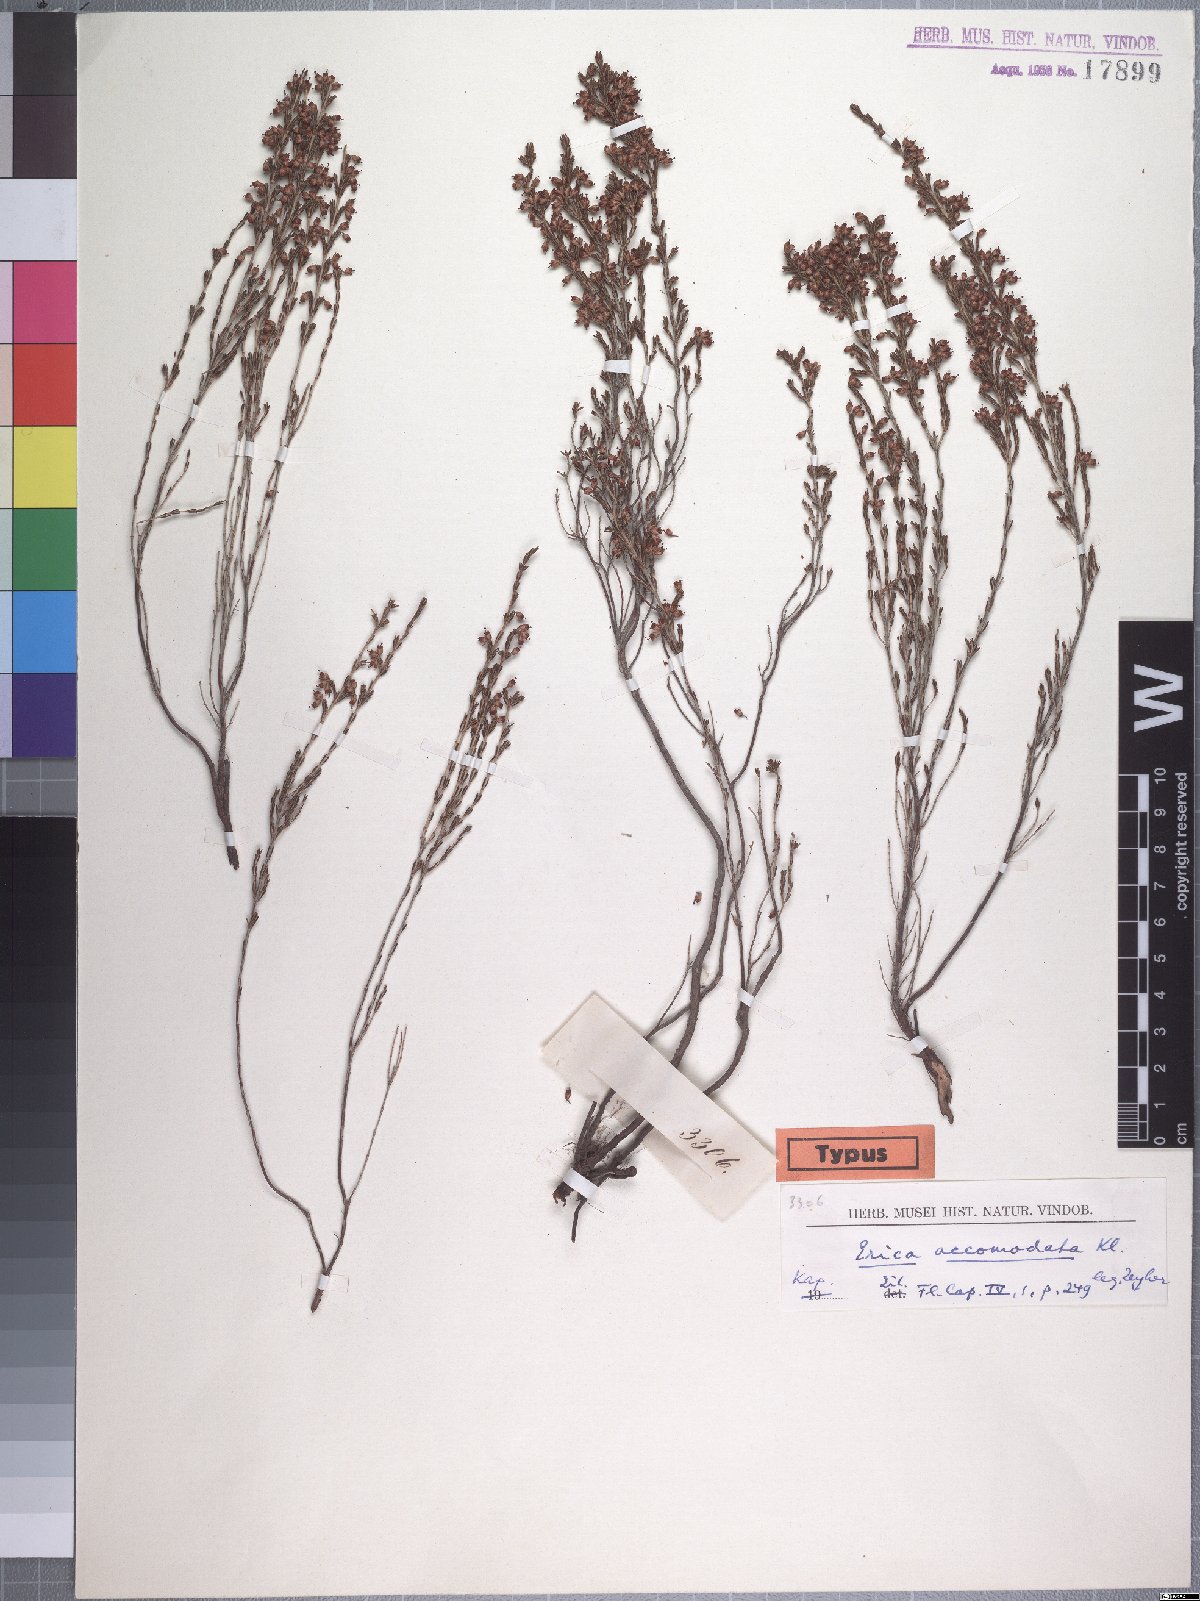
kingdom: Plantae
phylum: Tracheophyta
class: Magnoliopsida
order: Ericales
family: Ericaceae
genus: Erica
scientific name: Erica accommodata
